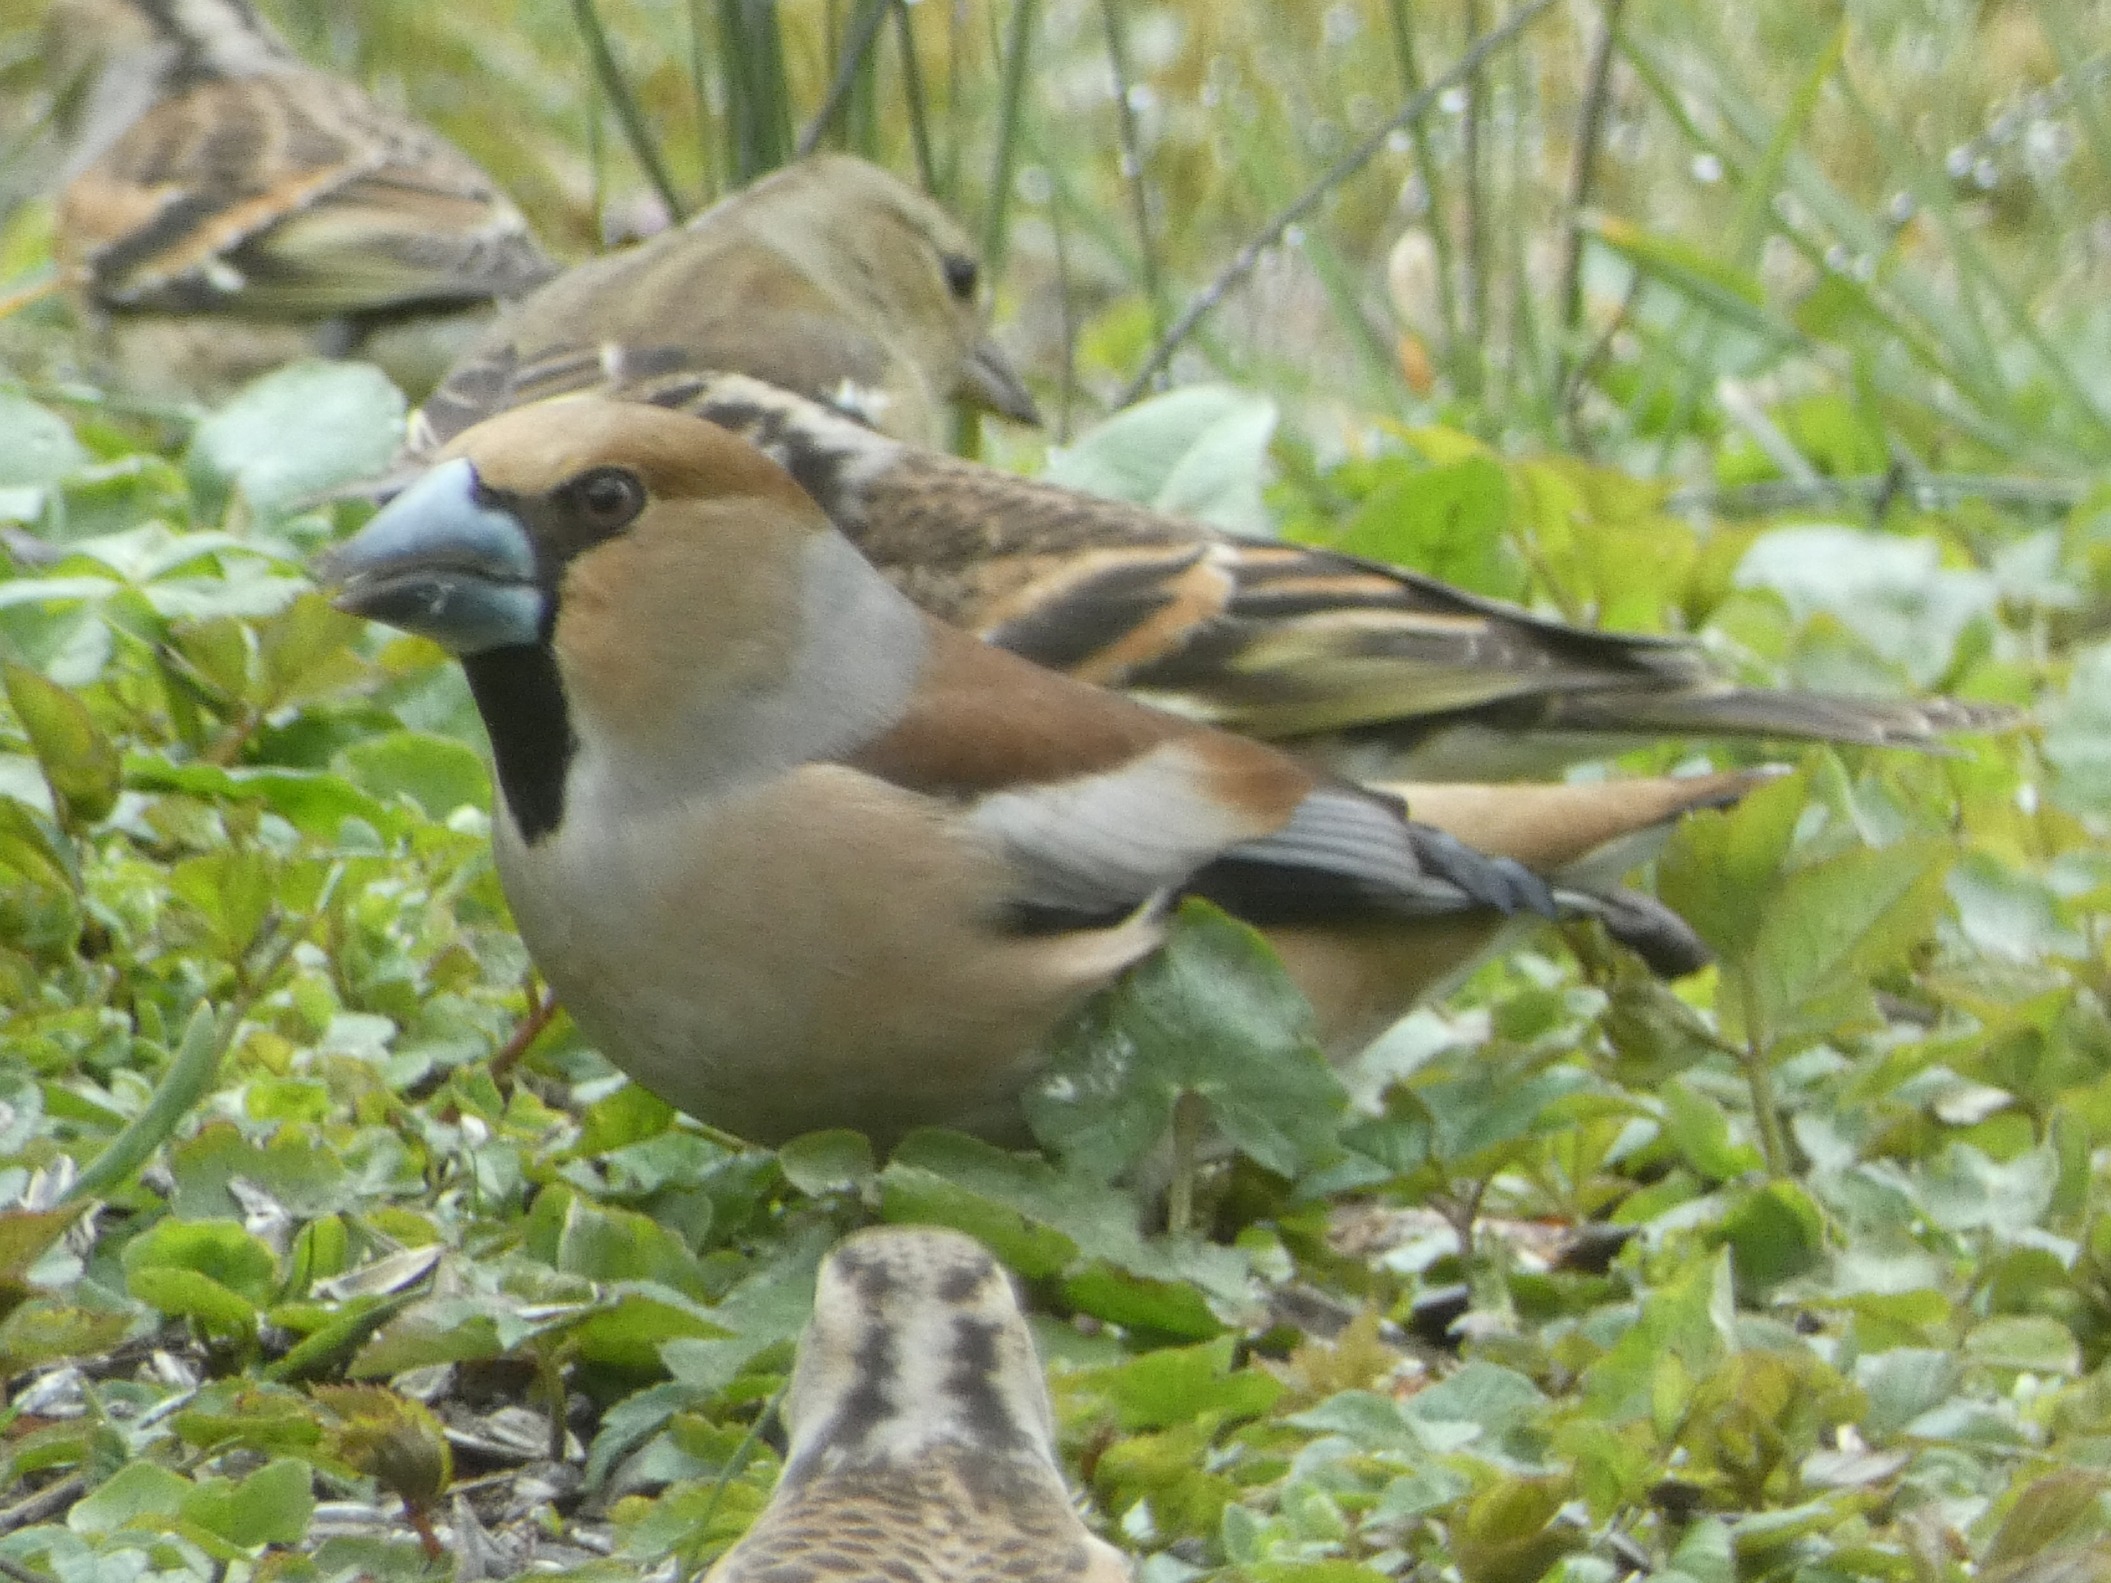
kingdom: Animalia
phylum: Chordata
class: Aves
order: Passeriformes
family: Fringillidae
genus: Coccothraustes
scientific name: Coccothraustes coccothraustes
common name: Kernebider
